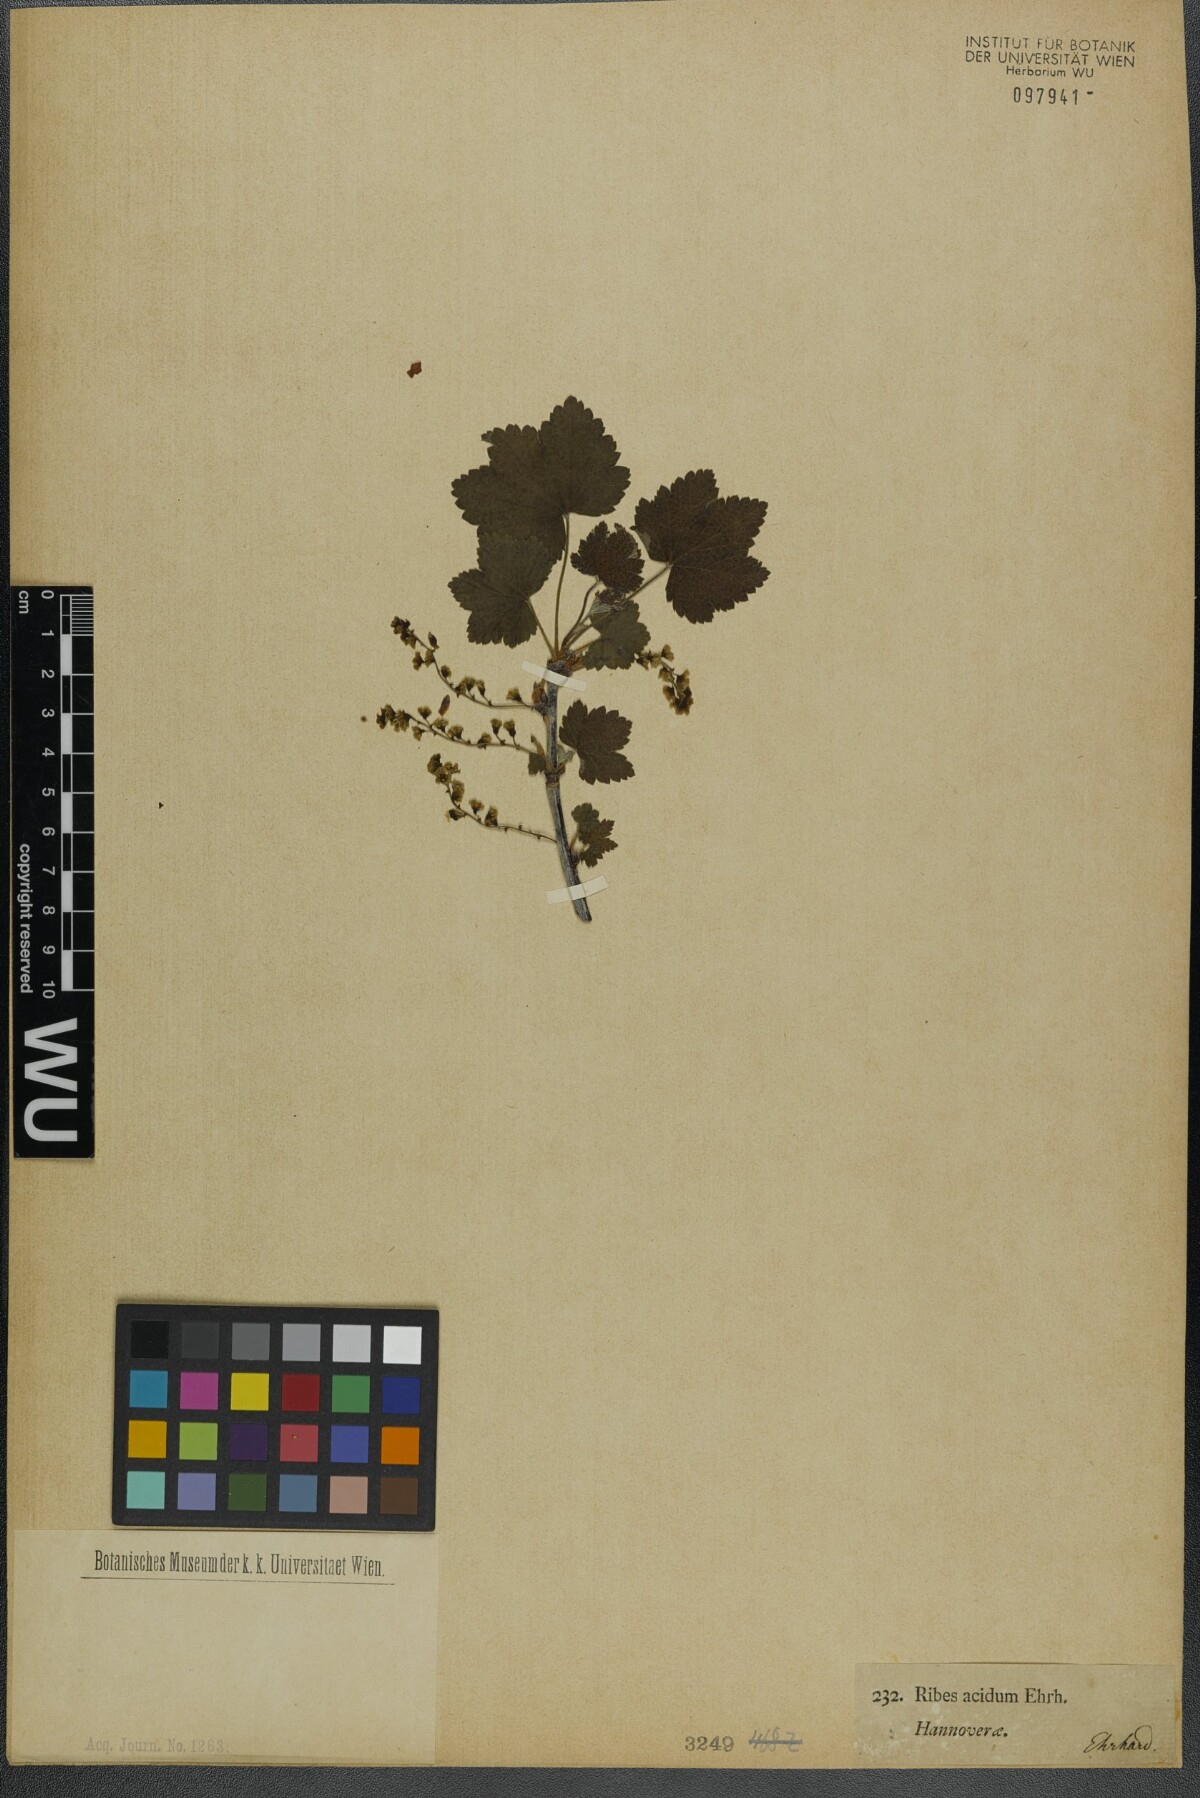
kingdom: Plantae
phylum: Tracheophyta
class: Magnoliopsida
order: Saxifragales
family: Grossulariaceae
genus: Ribes
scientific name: Ribes rubrum
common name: Red currant
